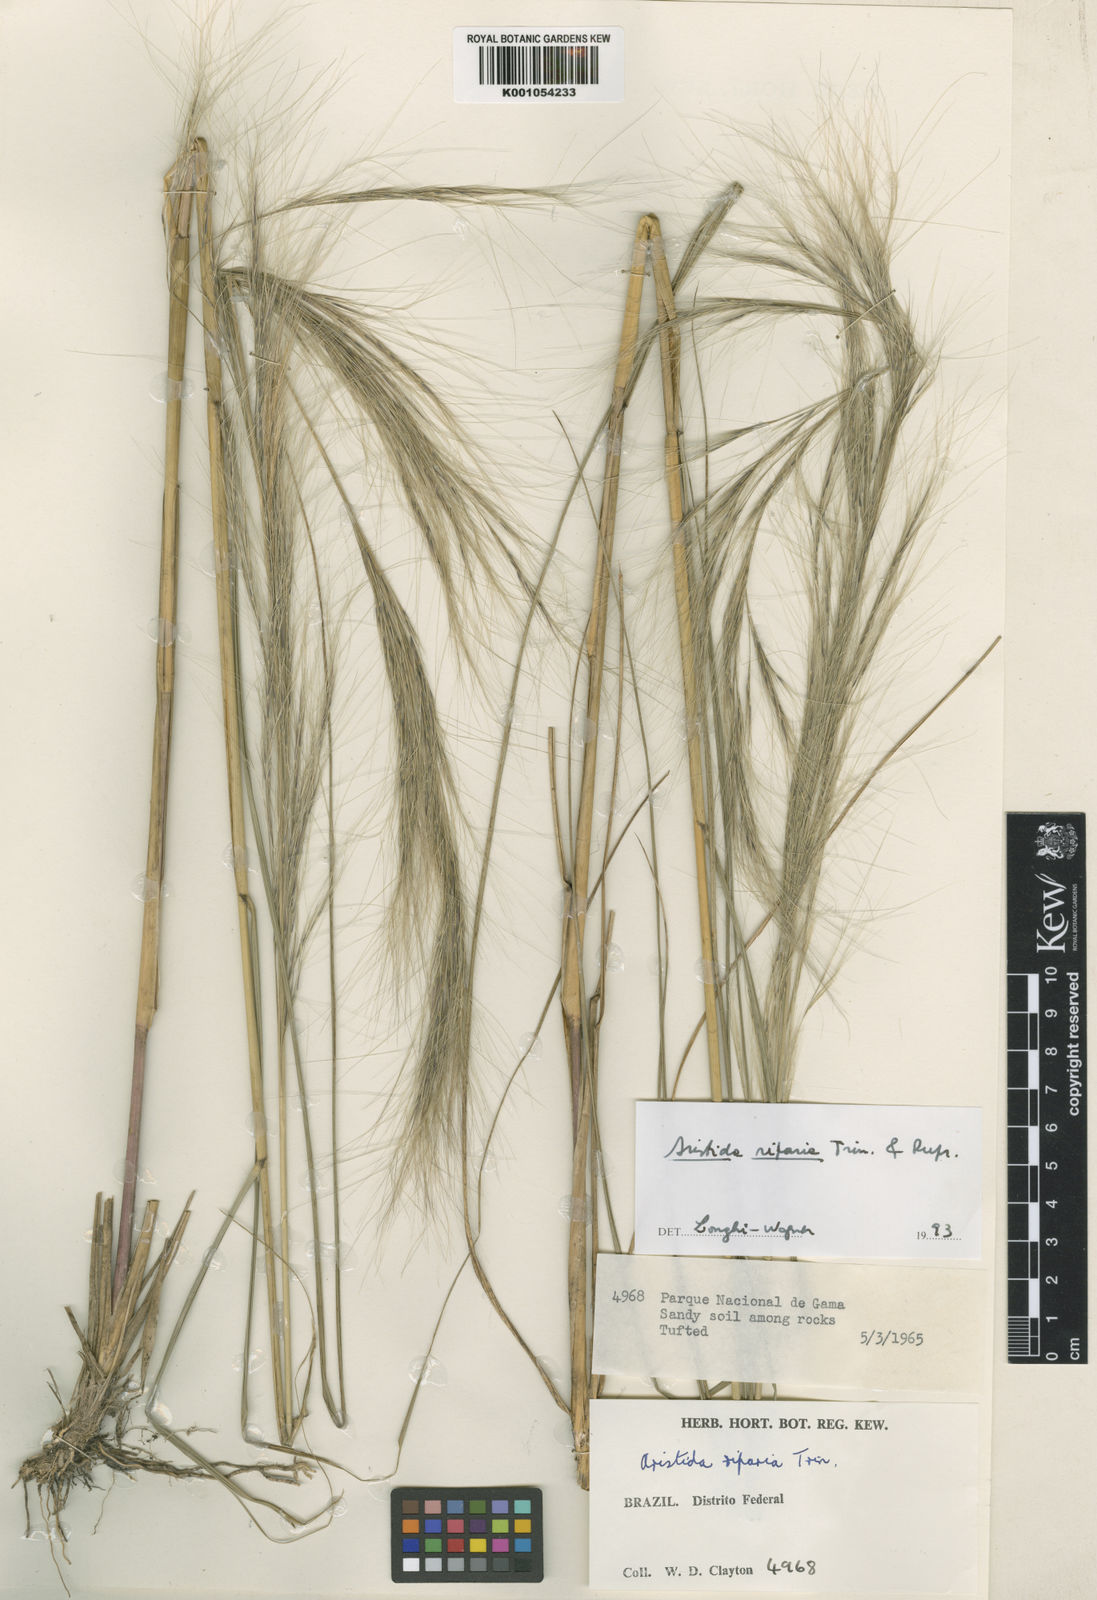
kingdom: Plantae
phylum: Tracheophyta
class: Liliopsida
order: Poales
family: Poaceae
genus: Aristida
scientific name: Aristida riparia
